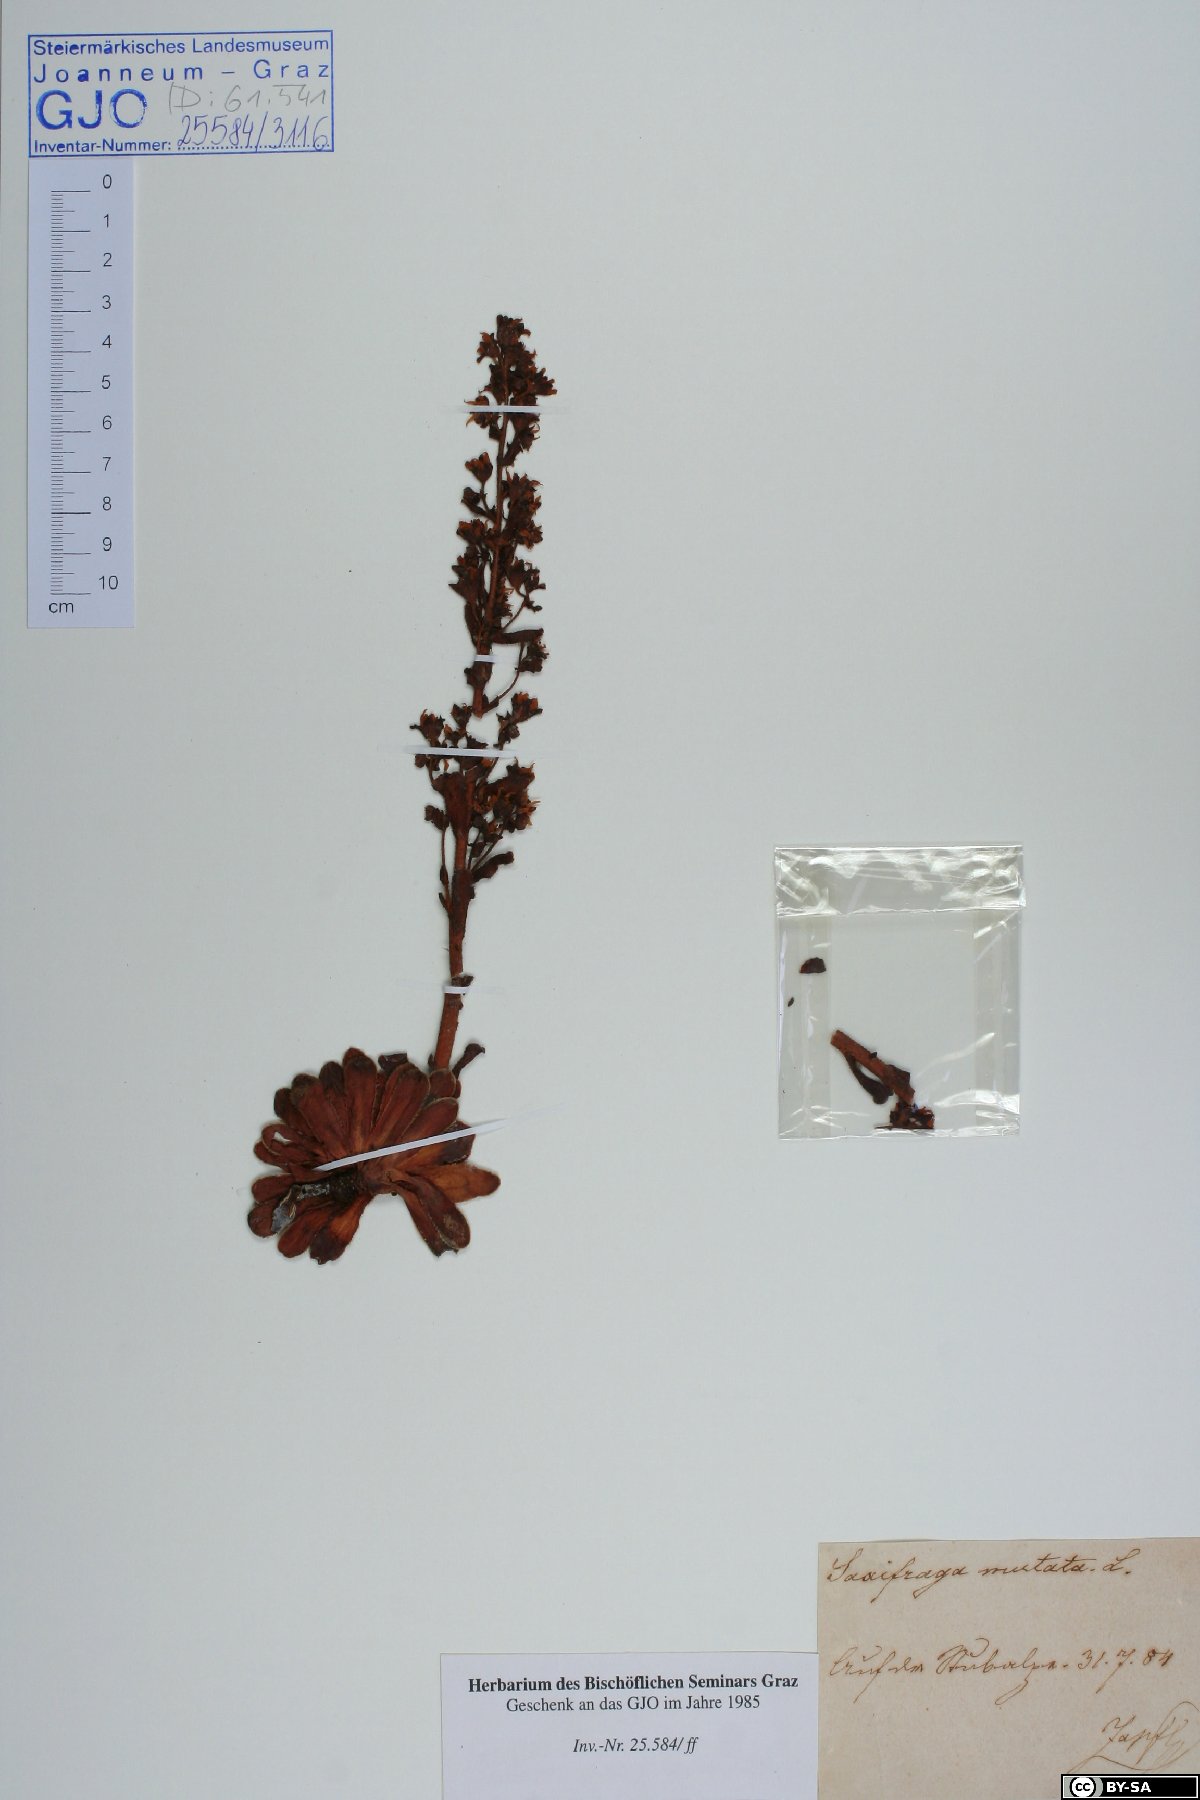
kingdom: Plantae
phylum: Tracheophyta
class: Magnoliopsida
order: Saxifragales
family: Saxifragaceae
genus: Saxifraga
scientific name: Saxifraga mutata
